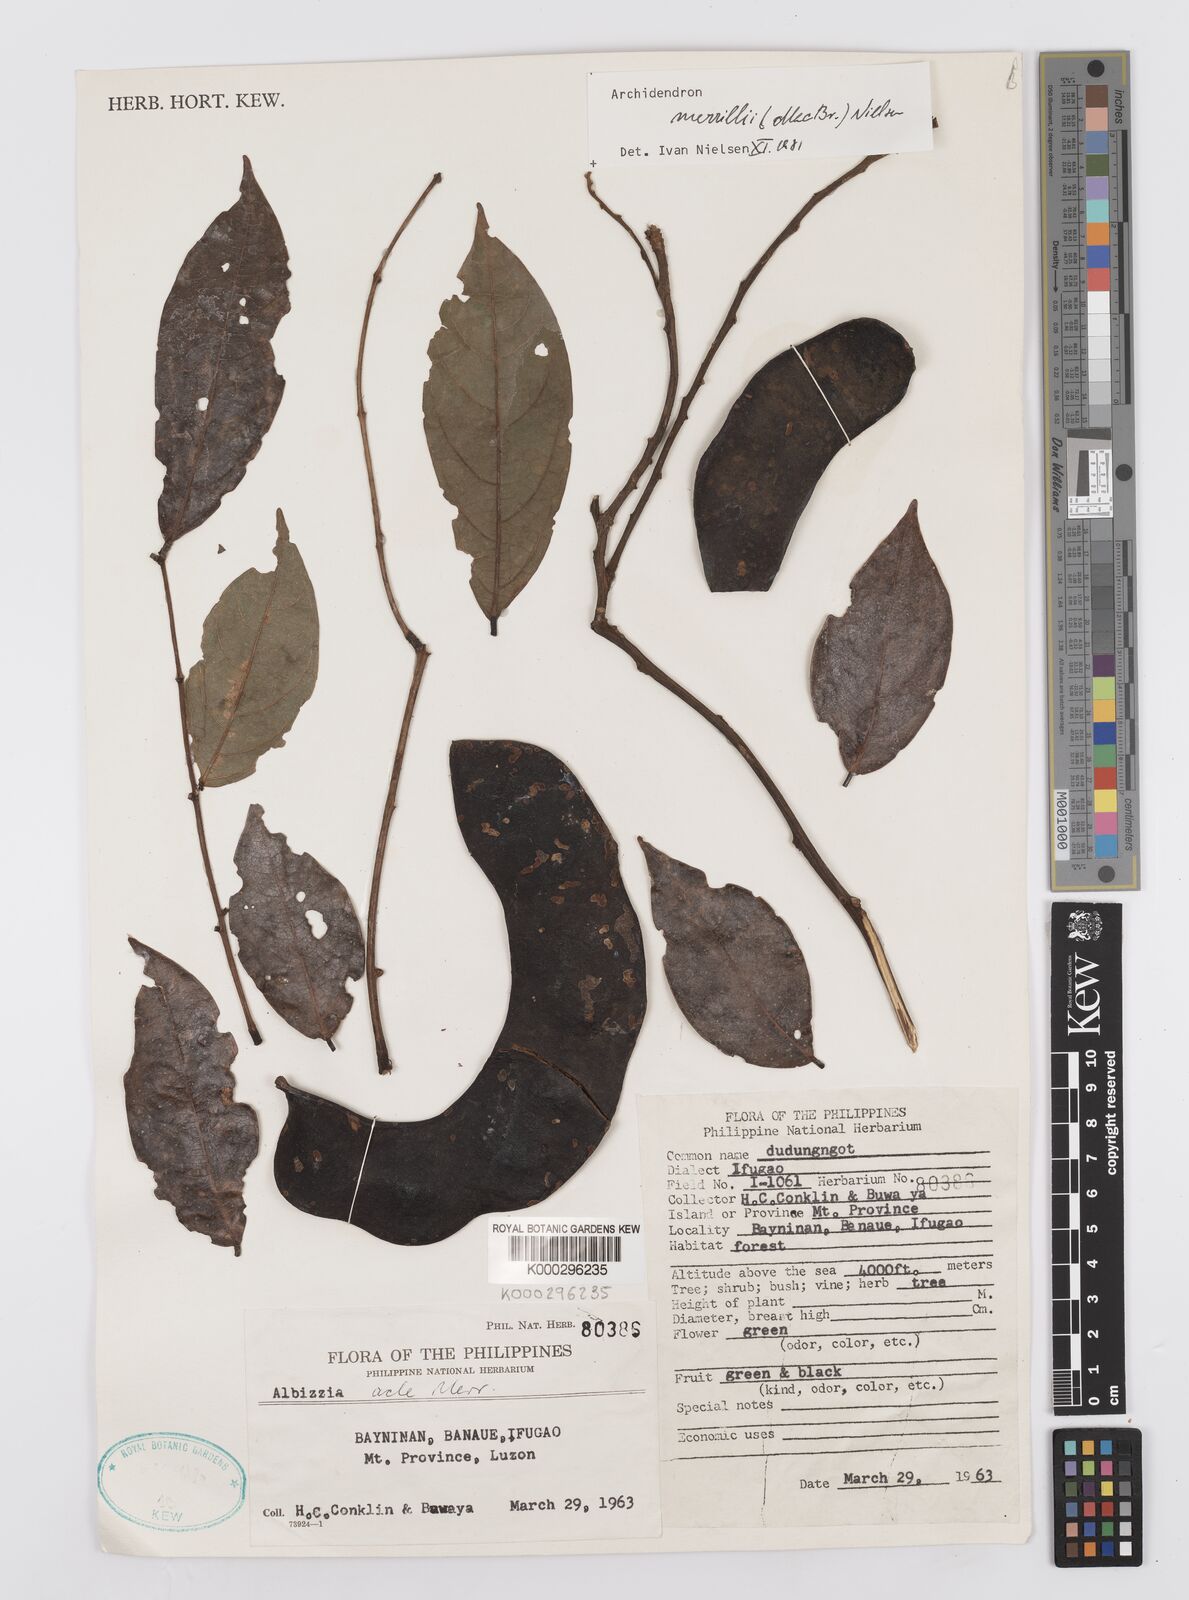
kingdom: Plantae
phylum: Tracheophyta
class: Magnoliopsida
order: Fabales
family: Fabaceae
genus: Albizia
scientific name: Albizia acle
